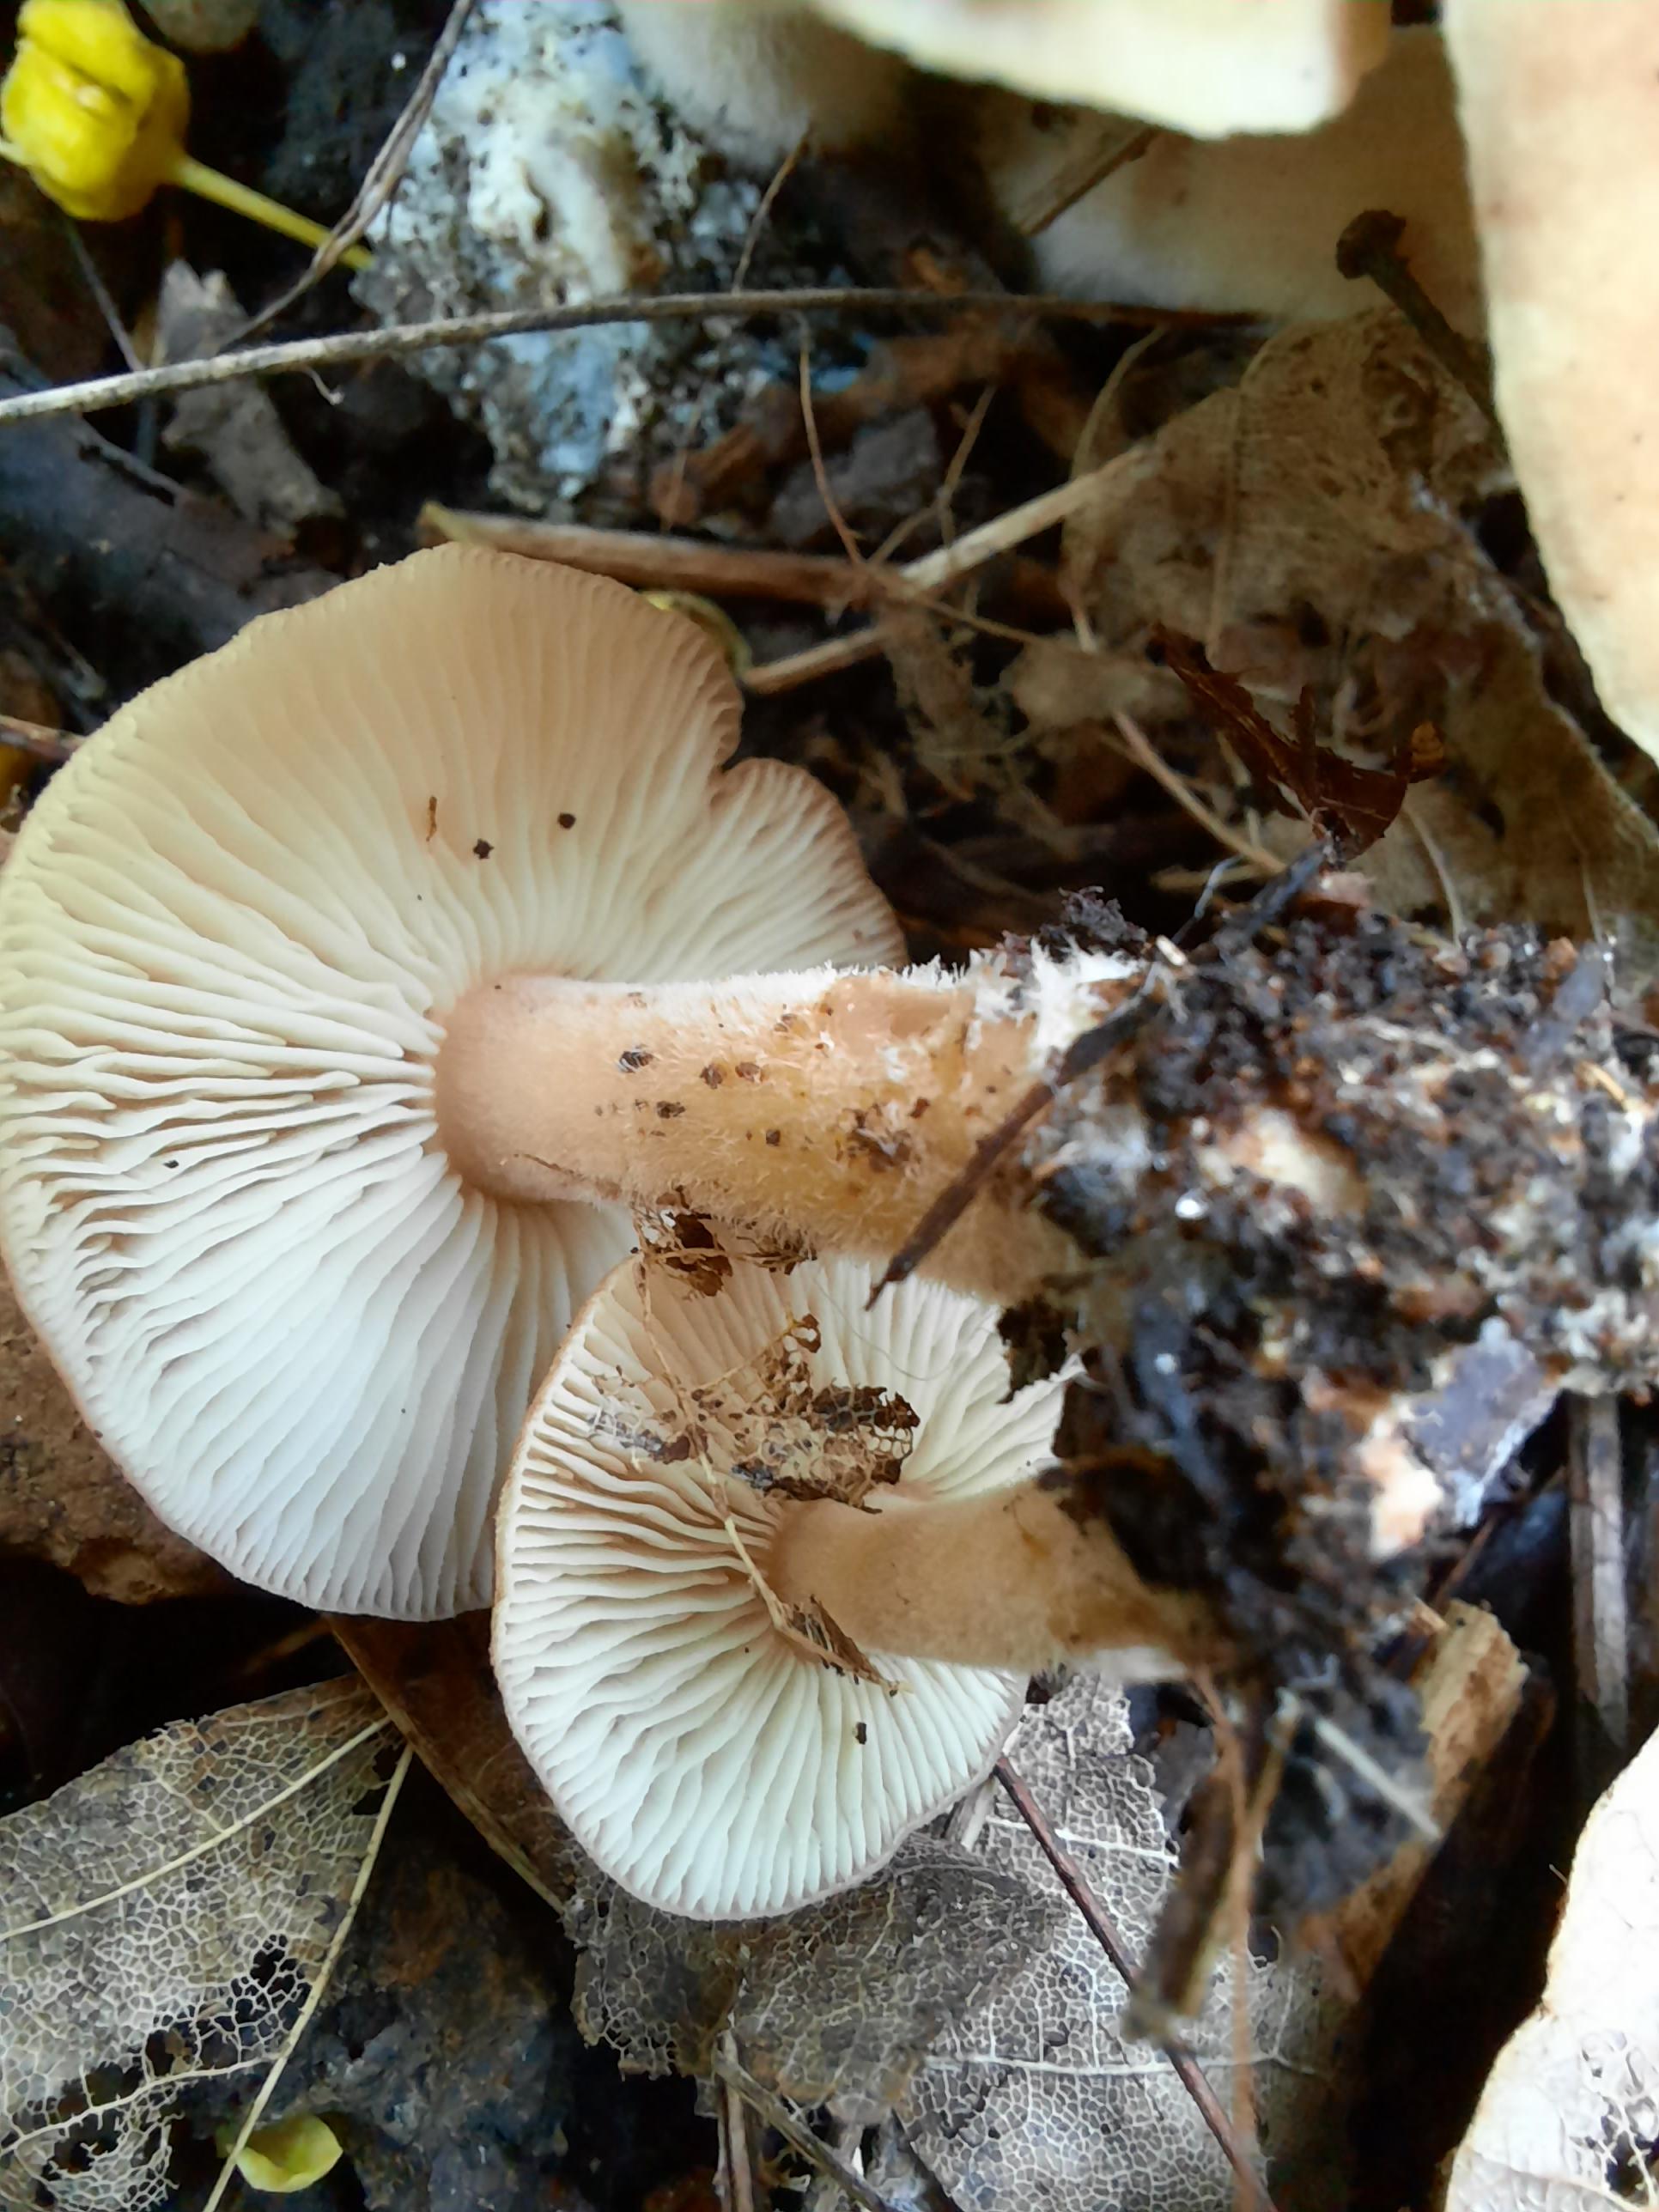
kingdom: Fungi
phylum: Basidiomycota
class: Agaricomycetes
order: Agaricales
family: Omphalotaceae
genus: Gymnopus
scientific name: Gymnopus
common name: fladhat
